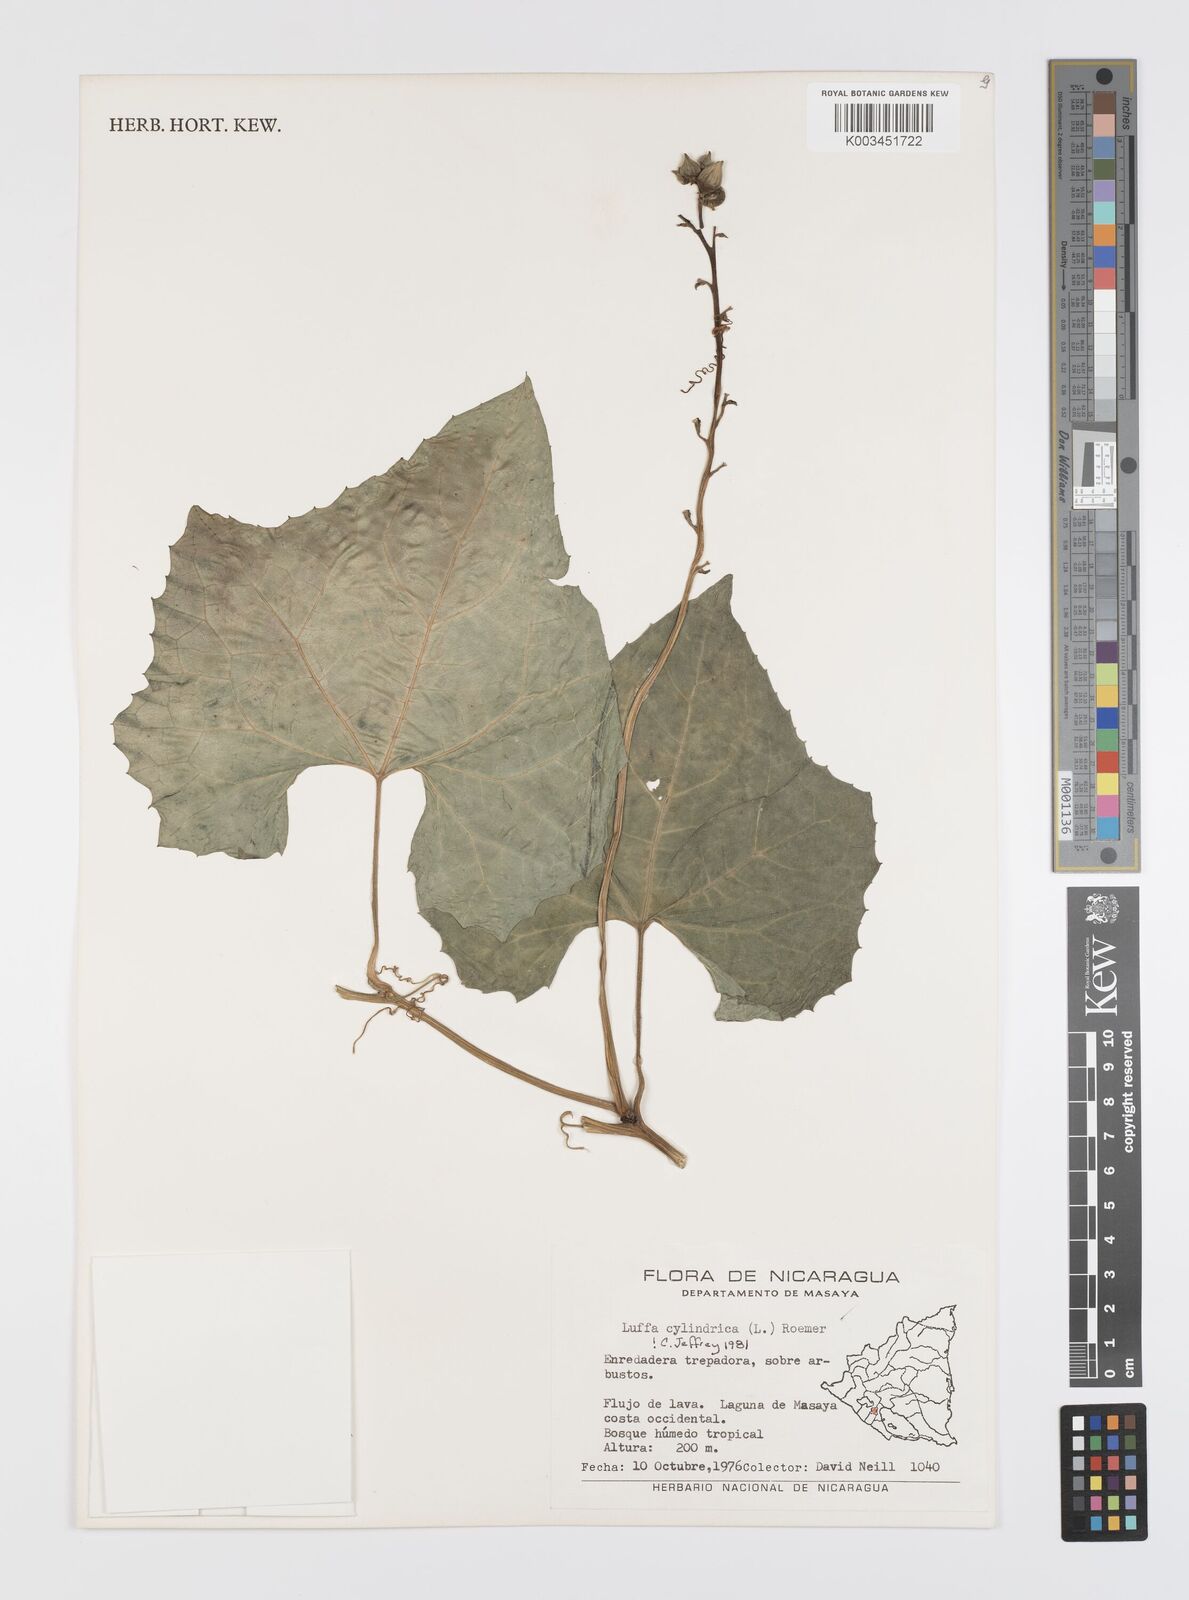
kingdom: Plantae
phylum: Tracheophyta
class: Magnoliopsida
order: Cucurbitales
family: Cucurbitaceae
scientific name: Cucurbitaceae
